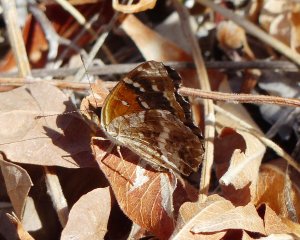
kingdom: Animalia
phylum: Arthropoda
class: Insecta
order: Lepidoptera
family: Nymphalidae
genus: Phyciodes
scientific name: Phyciodes
